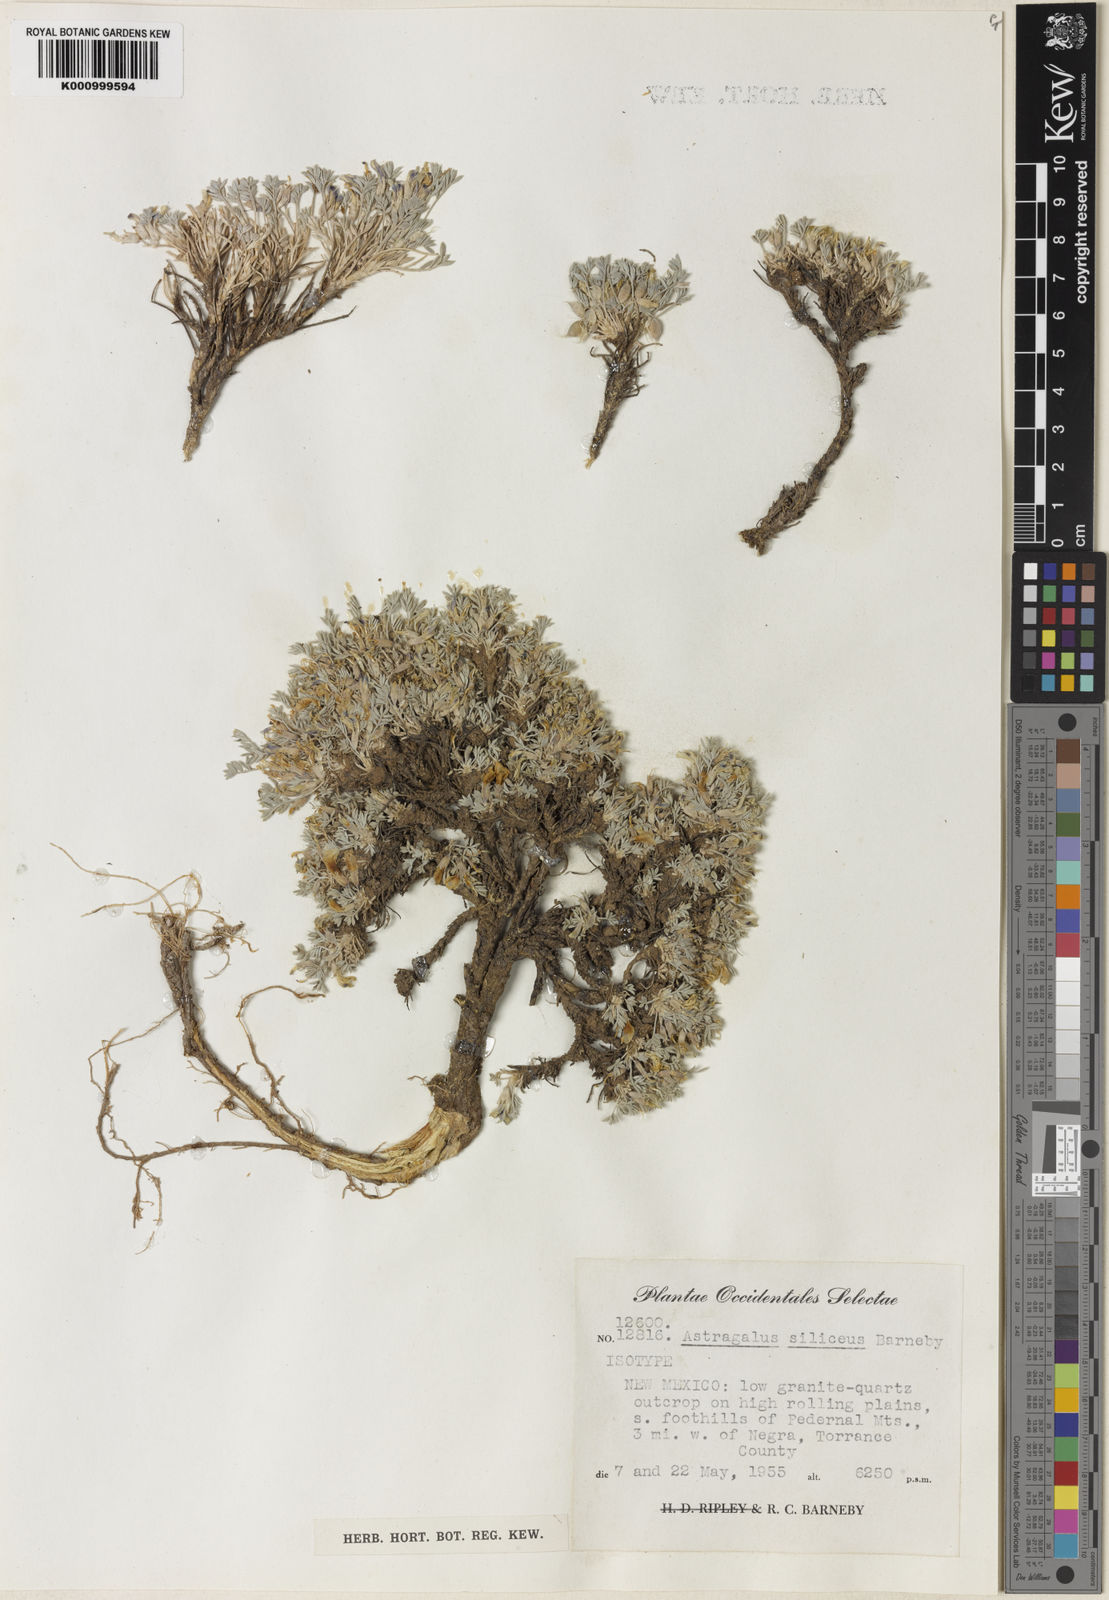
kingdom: Plantae
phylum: Tracheophyta
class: Magnoliopsida
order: Fabales
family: Fabaceae
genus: Astragalus
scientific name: Astragalus siliceus
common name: Flint mountain milkvetch
